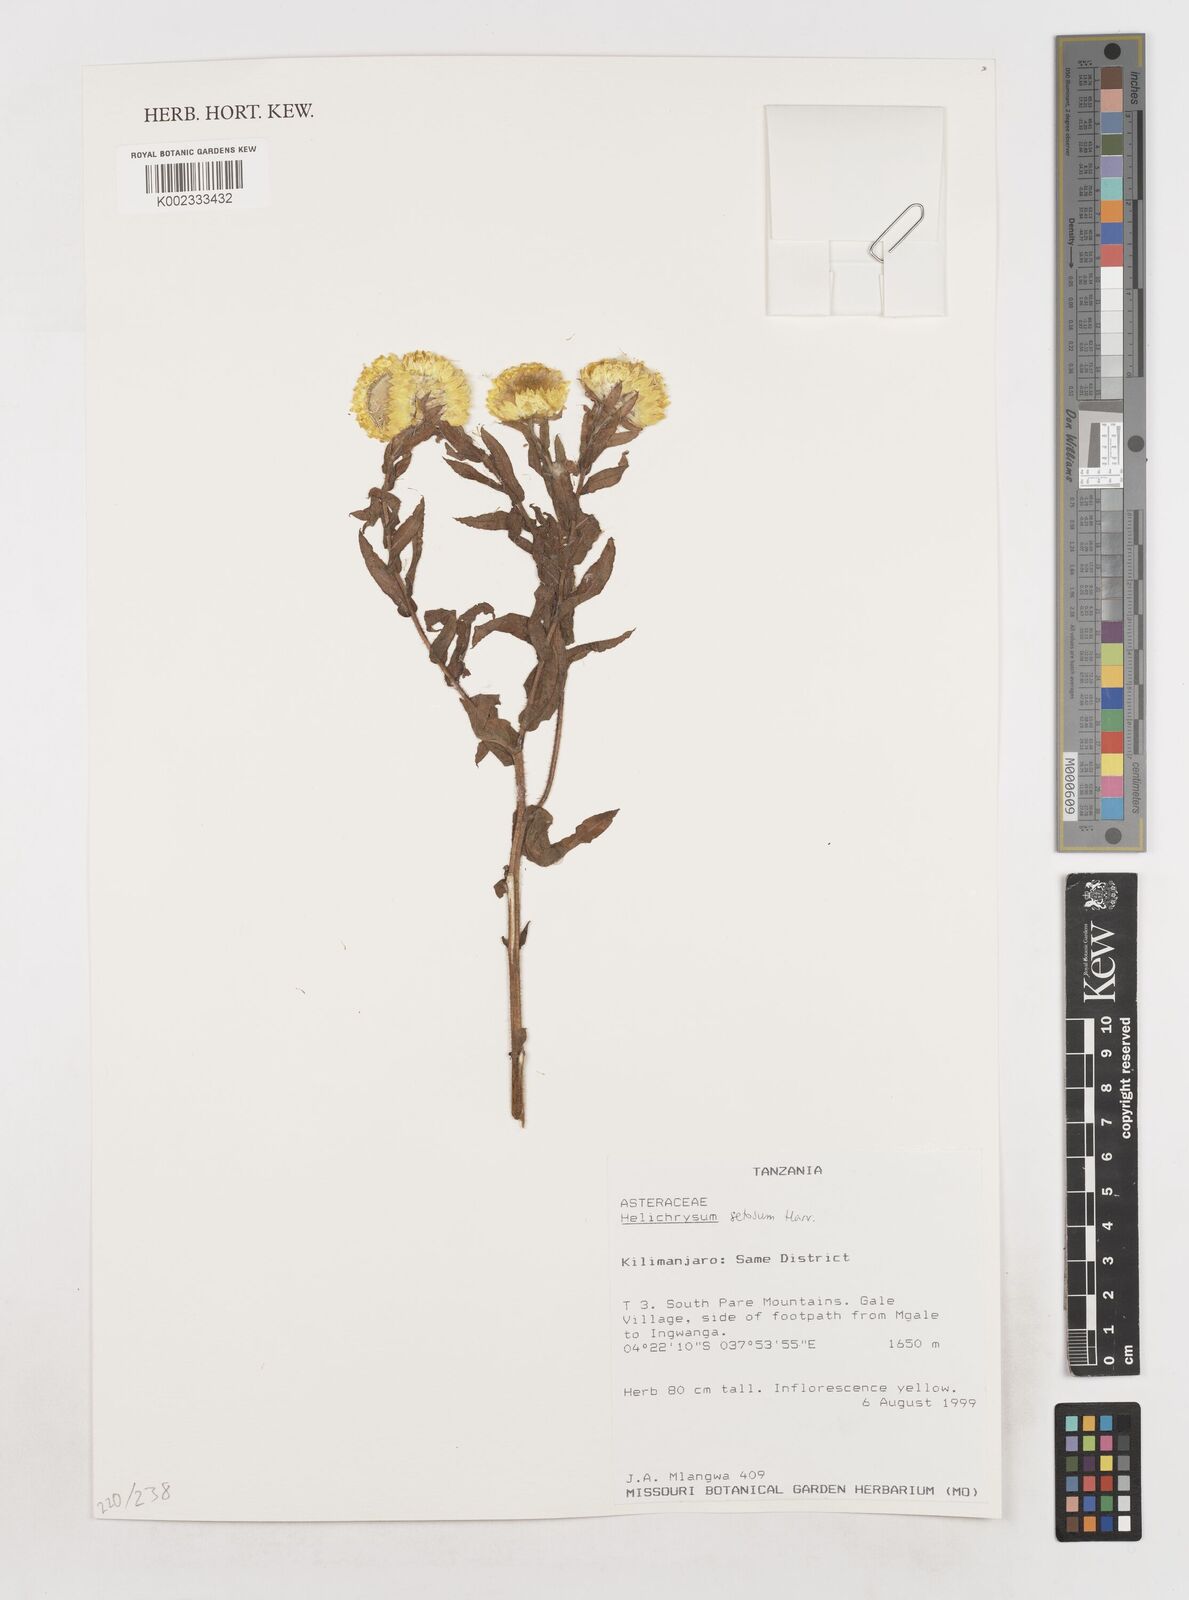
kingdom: Plantae
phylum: Tracheophyta
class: Magnoliopsida
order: Asterales
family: Asteraceae
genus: Helichrysum
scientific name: Helichrysum setosum
